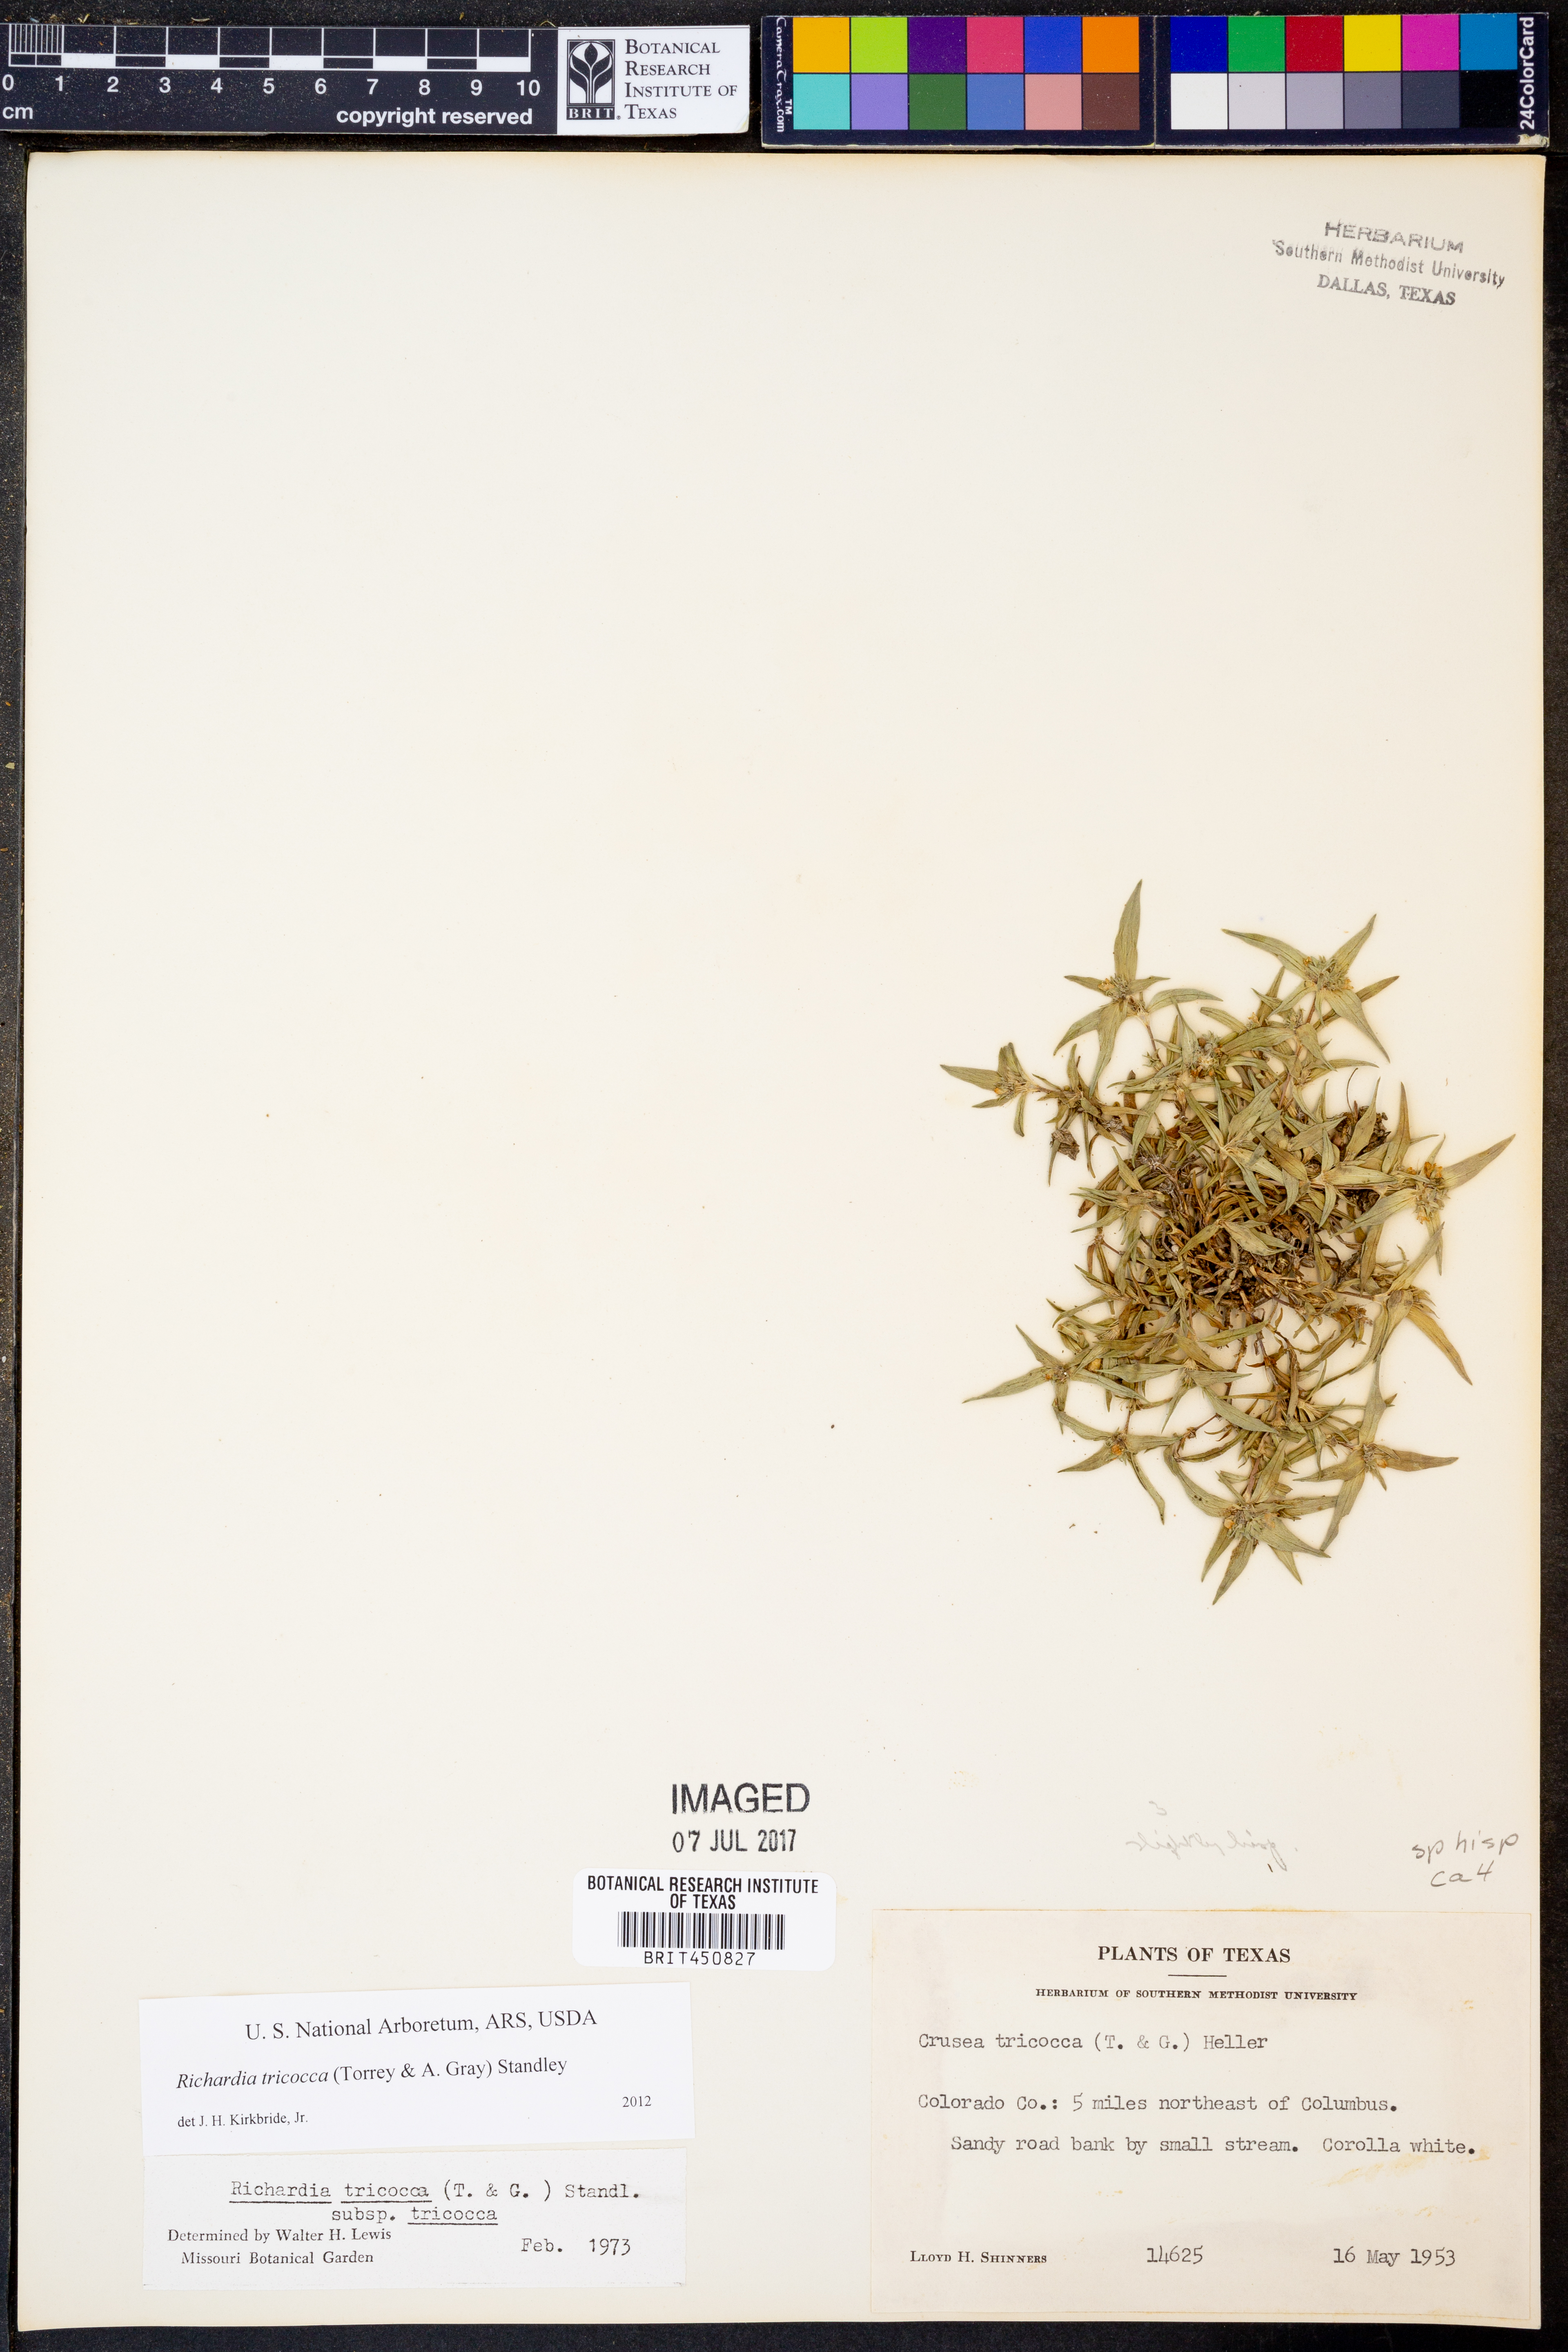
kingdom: Plantae
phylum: Tracheophyta
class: Magnoliopsida
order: Gentianales
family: Rubiaceae
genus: Richardia
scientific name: Richardia tricocca
